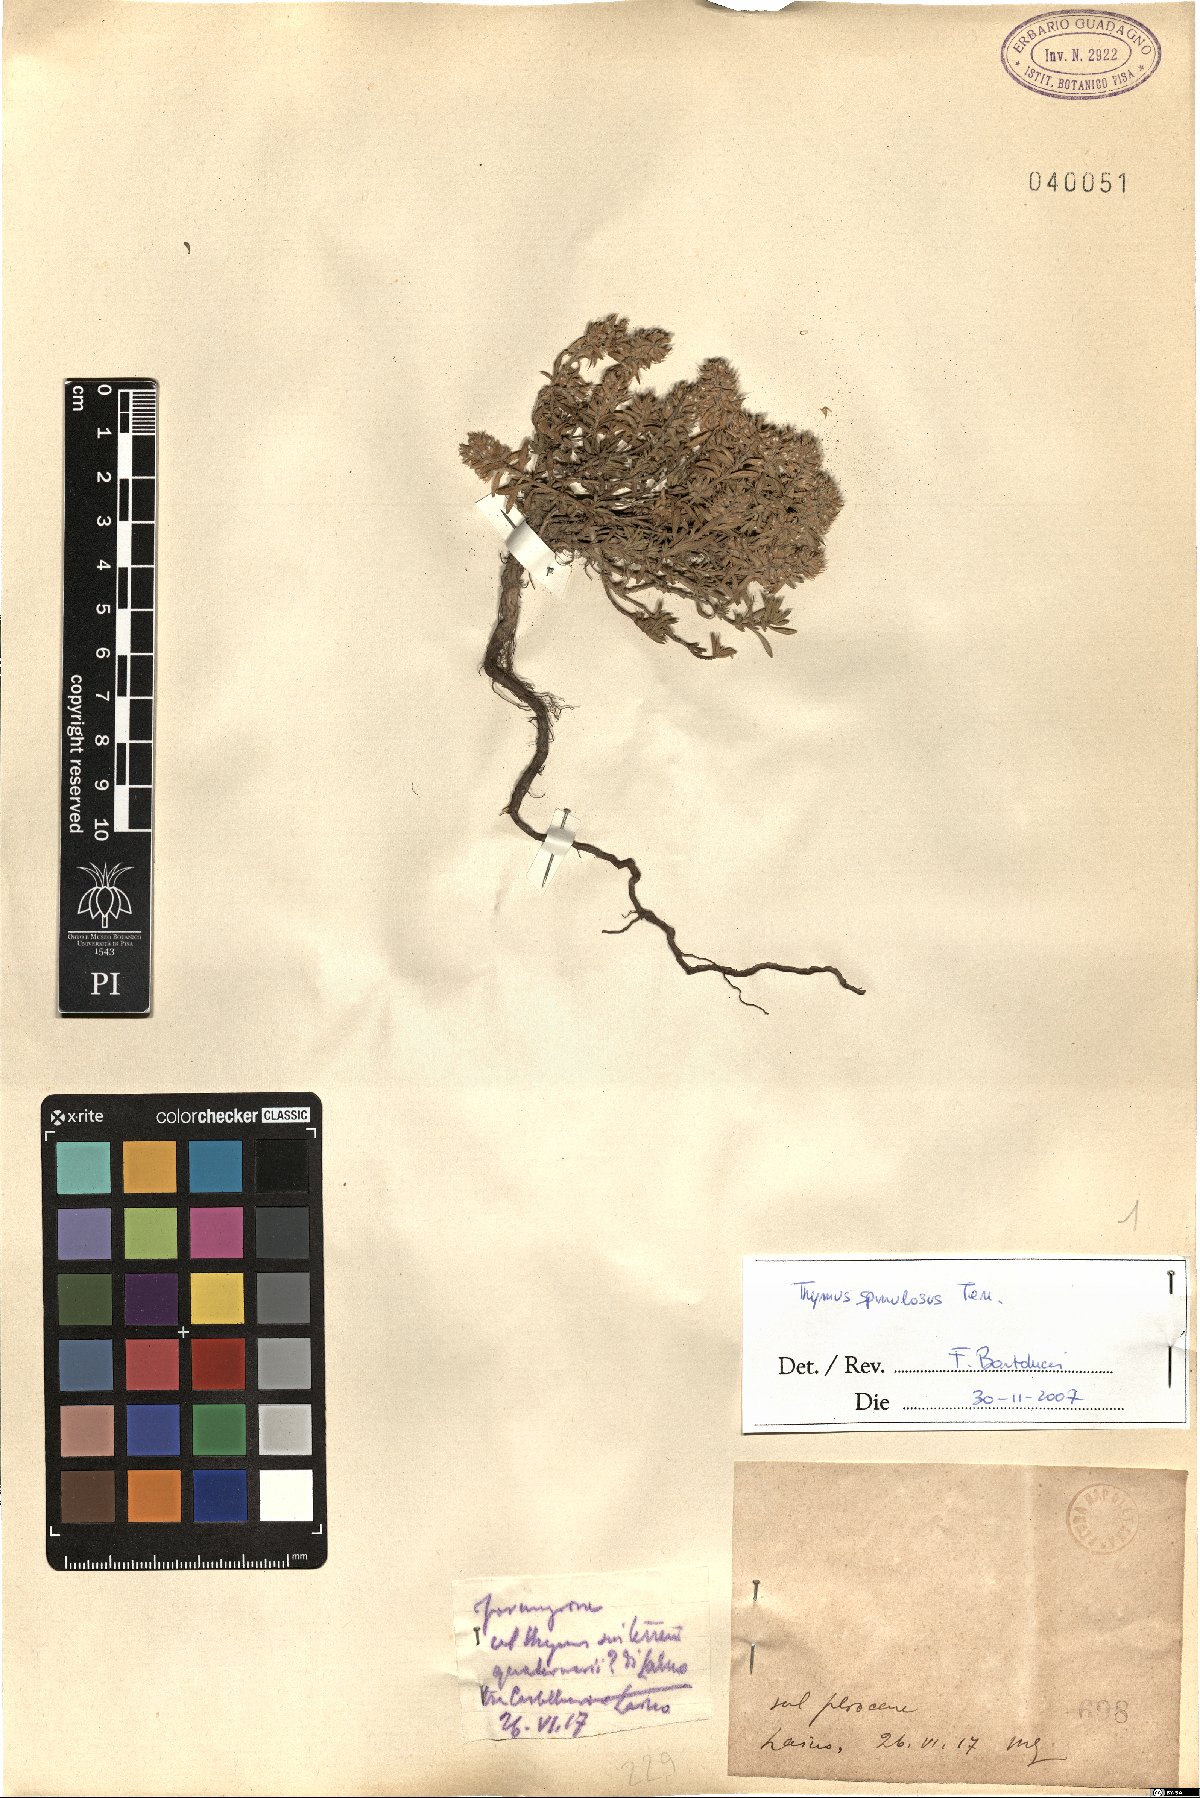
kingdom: Plantae
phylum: Tracheophyta
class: Magnoliopsida
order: Lamiales
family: Lamiaceae
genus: Thymus
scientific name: Thymus spinulosus
